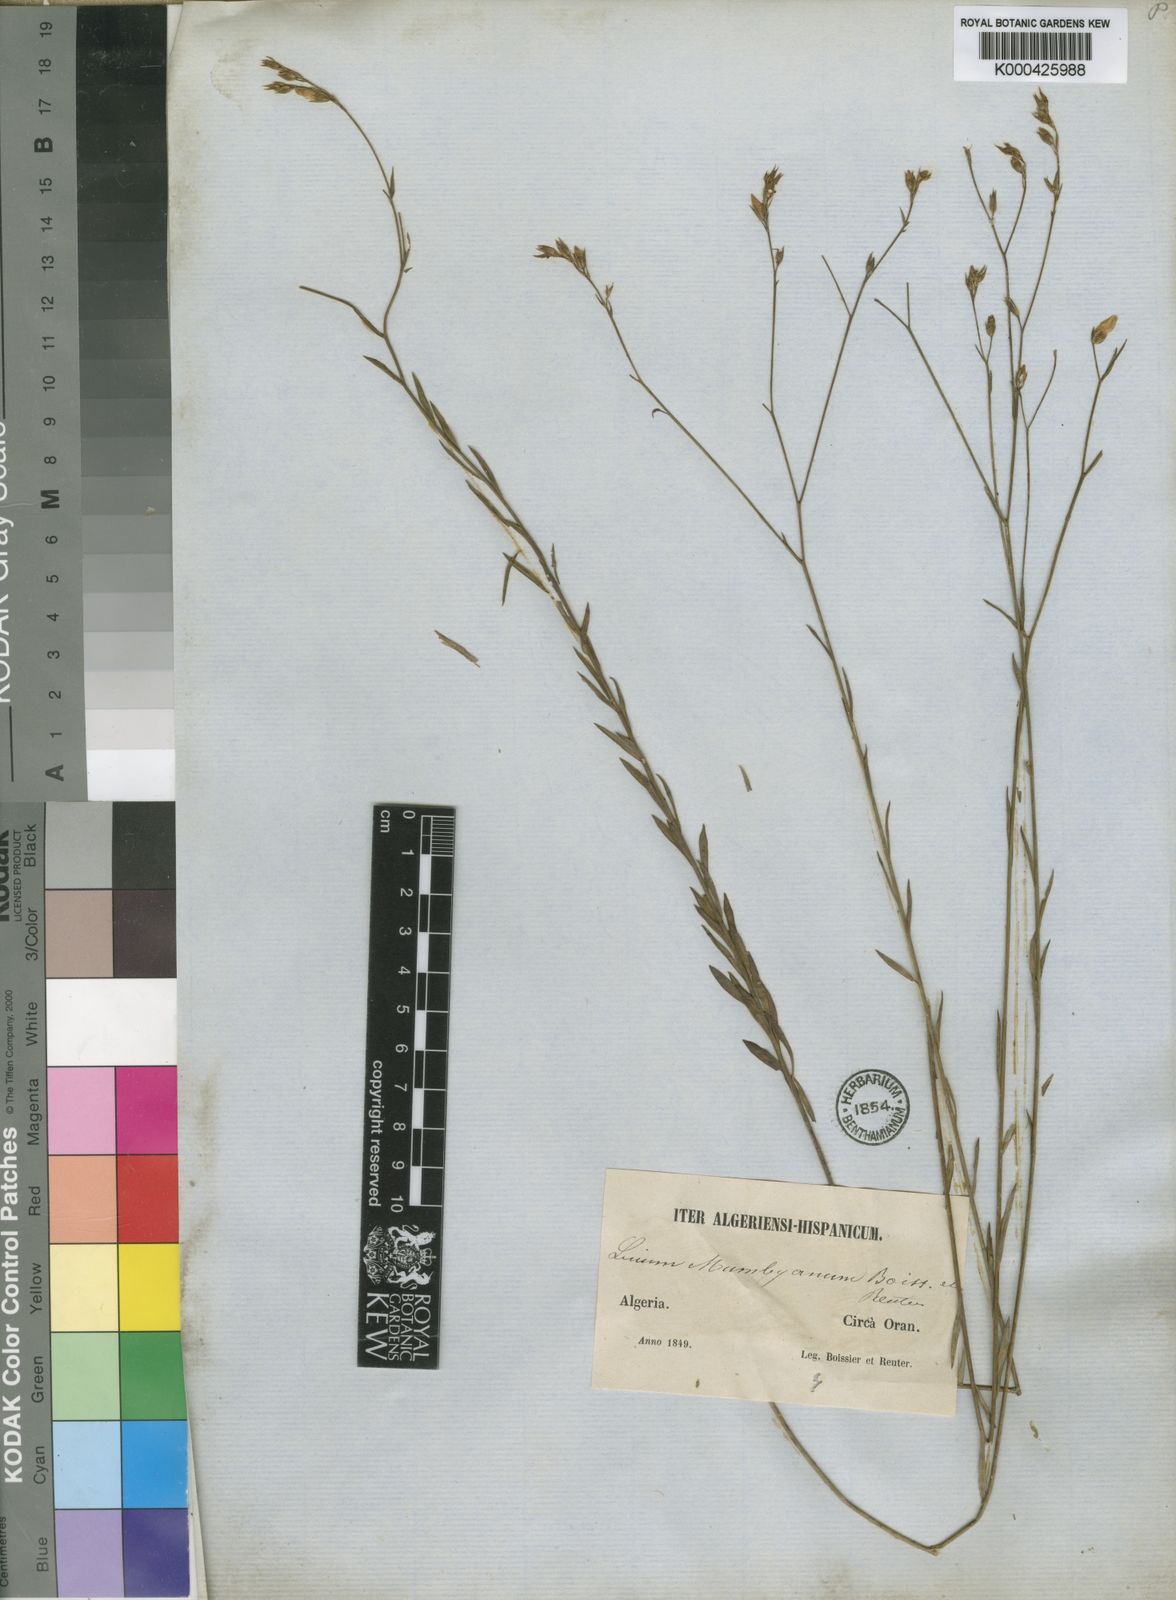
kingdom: Plantae
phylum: Tracheophyta
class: Magnoliopsida
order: Malpighiales
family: Linaceae
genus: Linum
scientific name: Linum tenue
